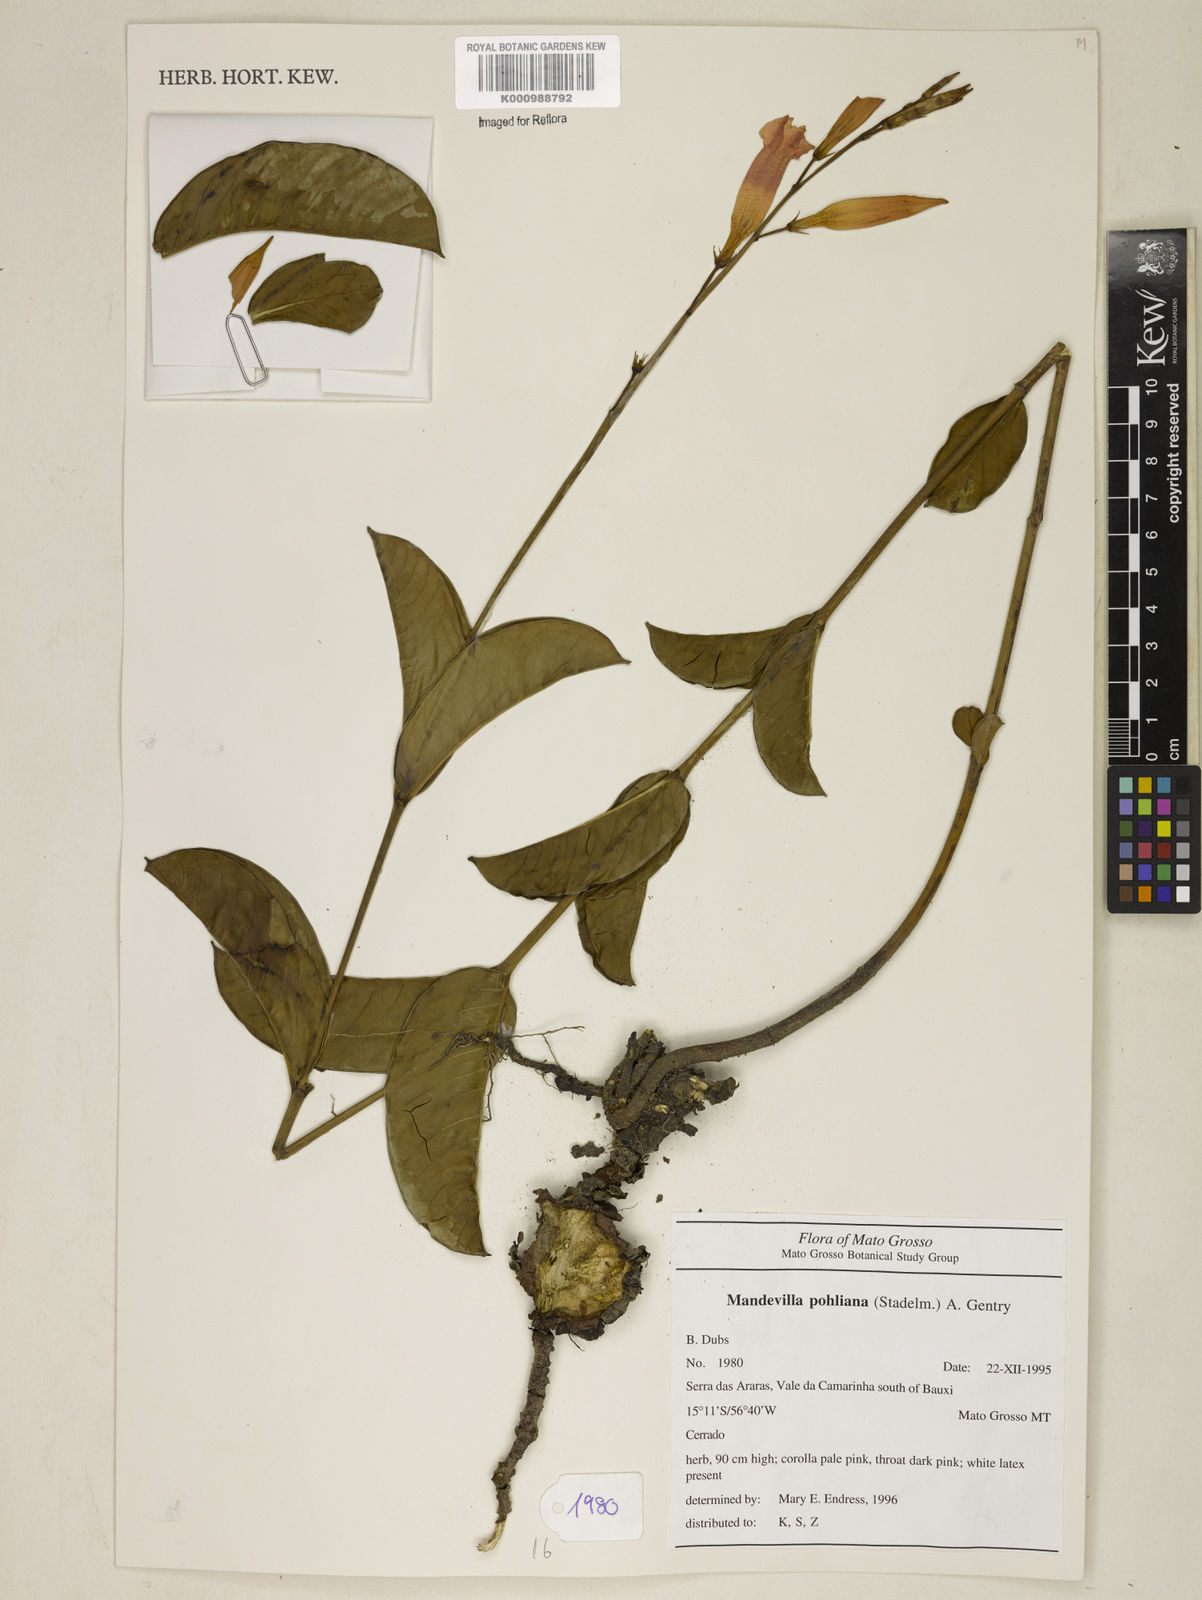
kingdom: Plantae
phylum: Tracheophyta
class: Magnoliopsida
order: Gentianales
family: Apocynaceae
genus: Mandevilla
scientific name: Mandevilla pohliana
